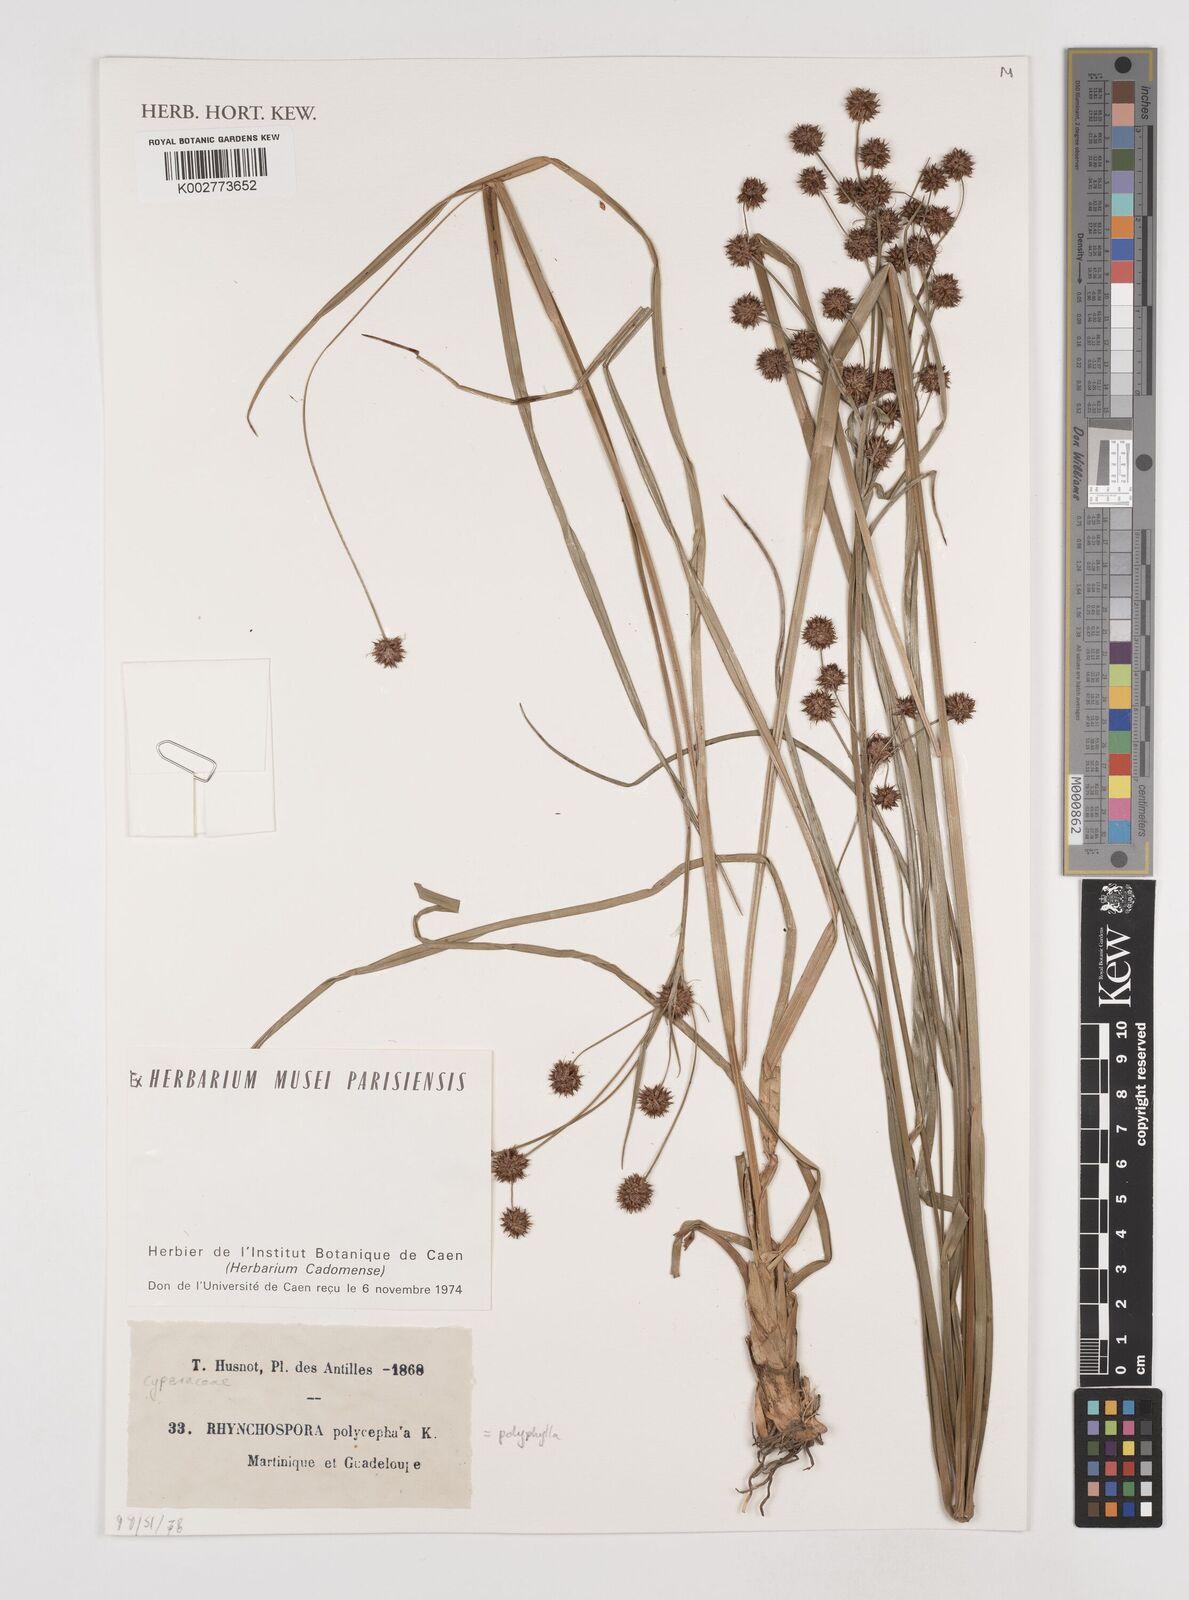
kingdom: Plantae
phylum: Tracheophyta
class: Liliopsida
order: Poales
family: Cyperaceae
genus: Rhynchospora
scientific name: Rhynchospora polyphylla
